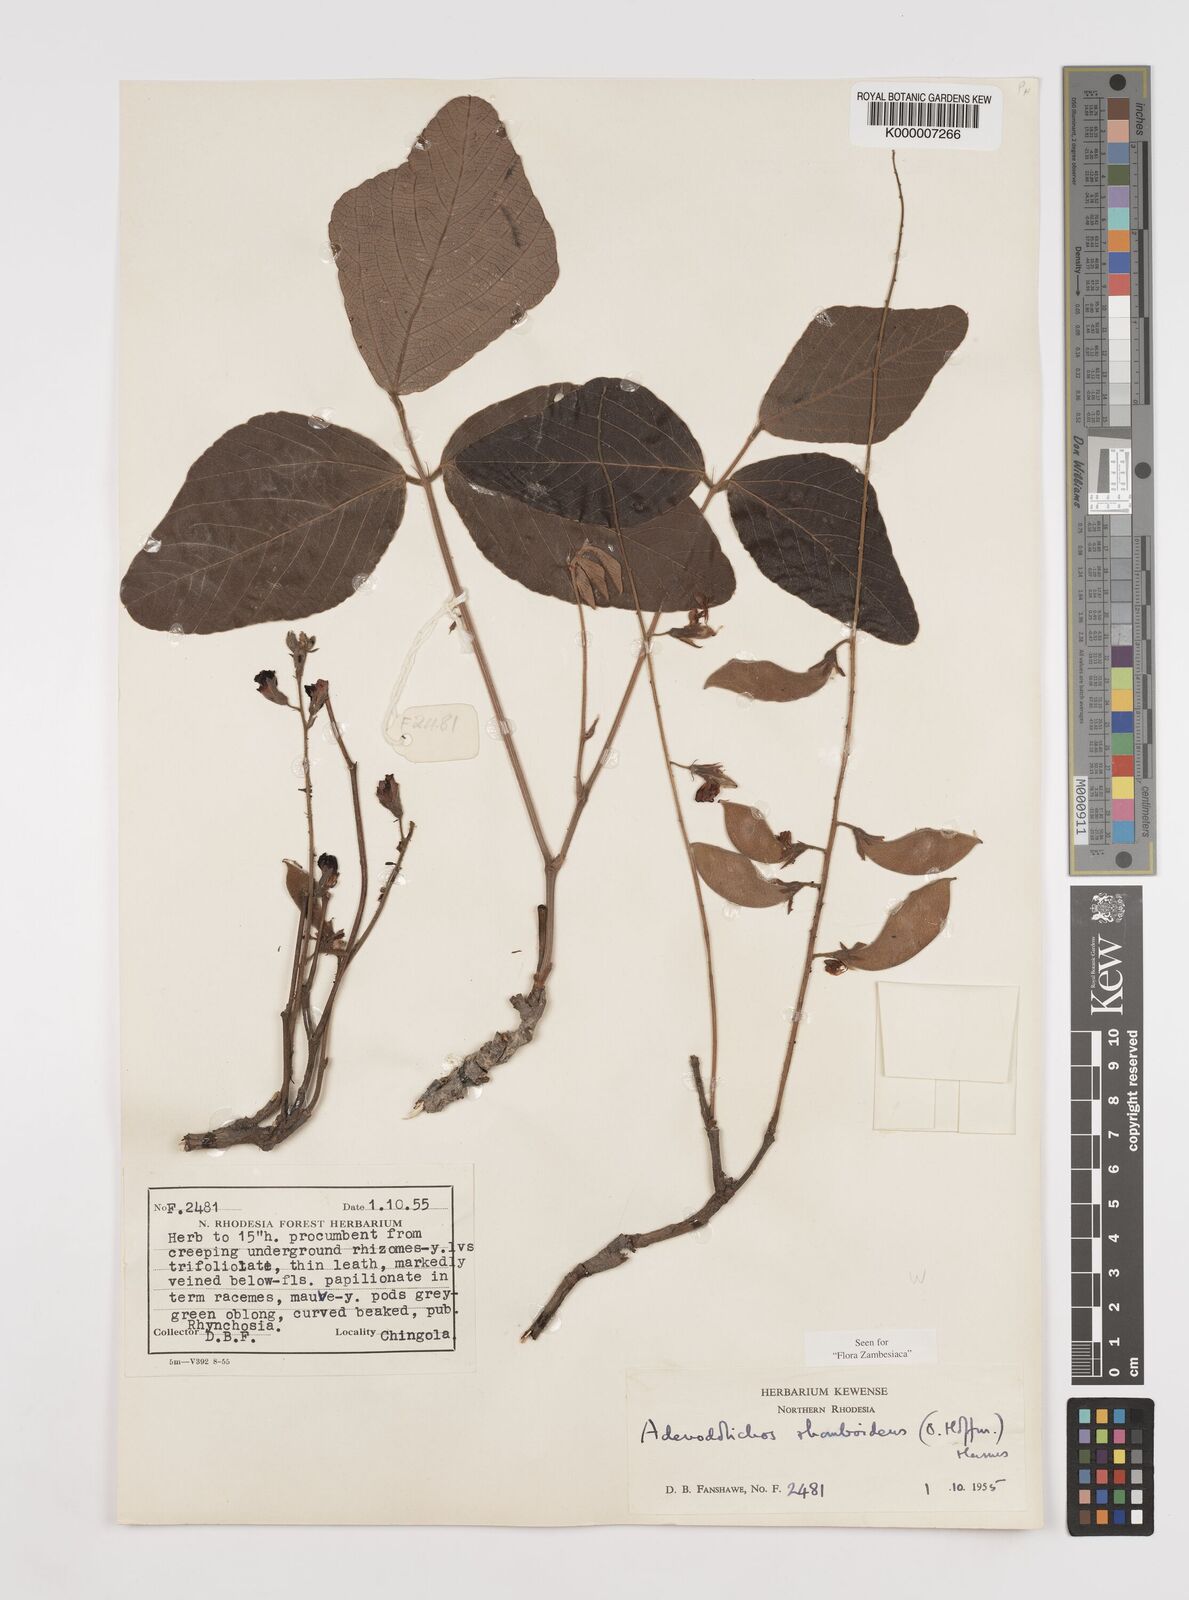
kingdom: Plantae
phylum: Tracheophyta
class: Magnoliopsida
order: Fabales
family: Fabaceae
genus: Adenodolichos
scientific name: Adenodolichos rhomboideus
